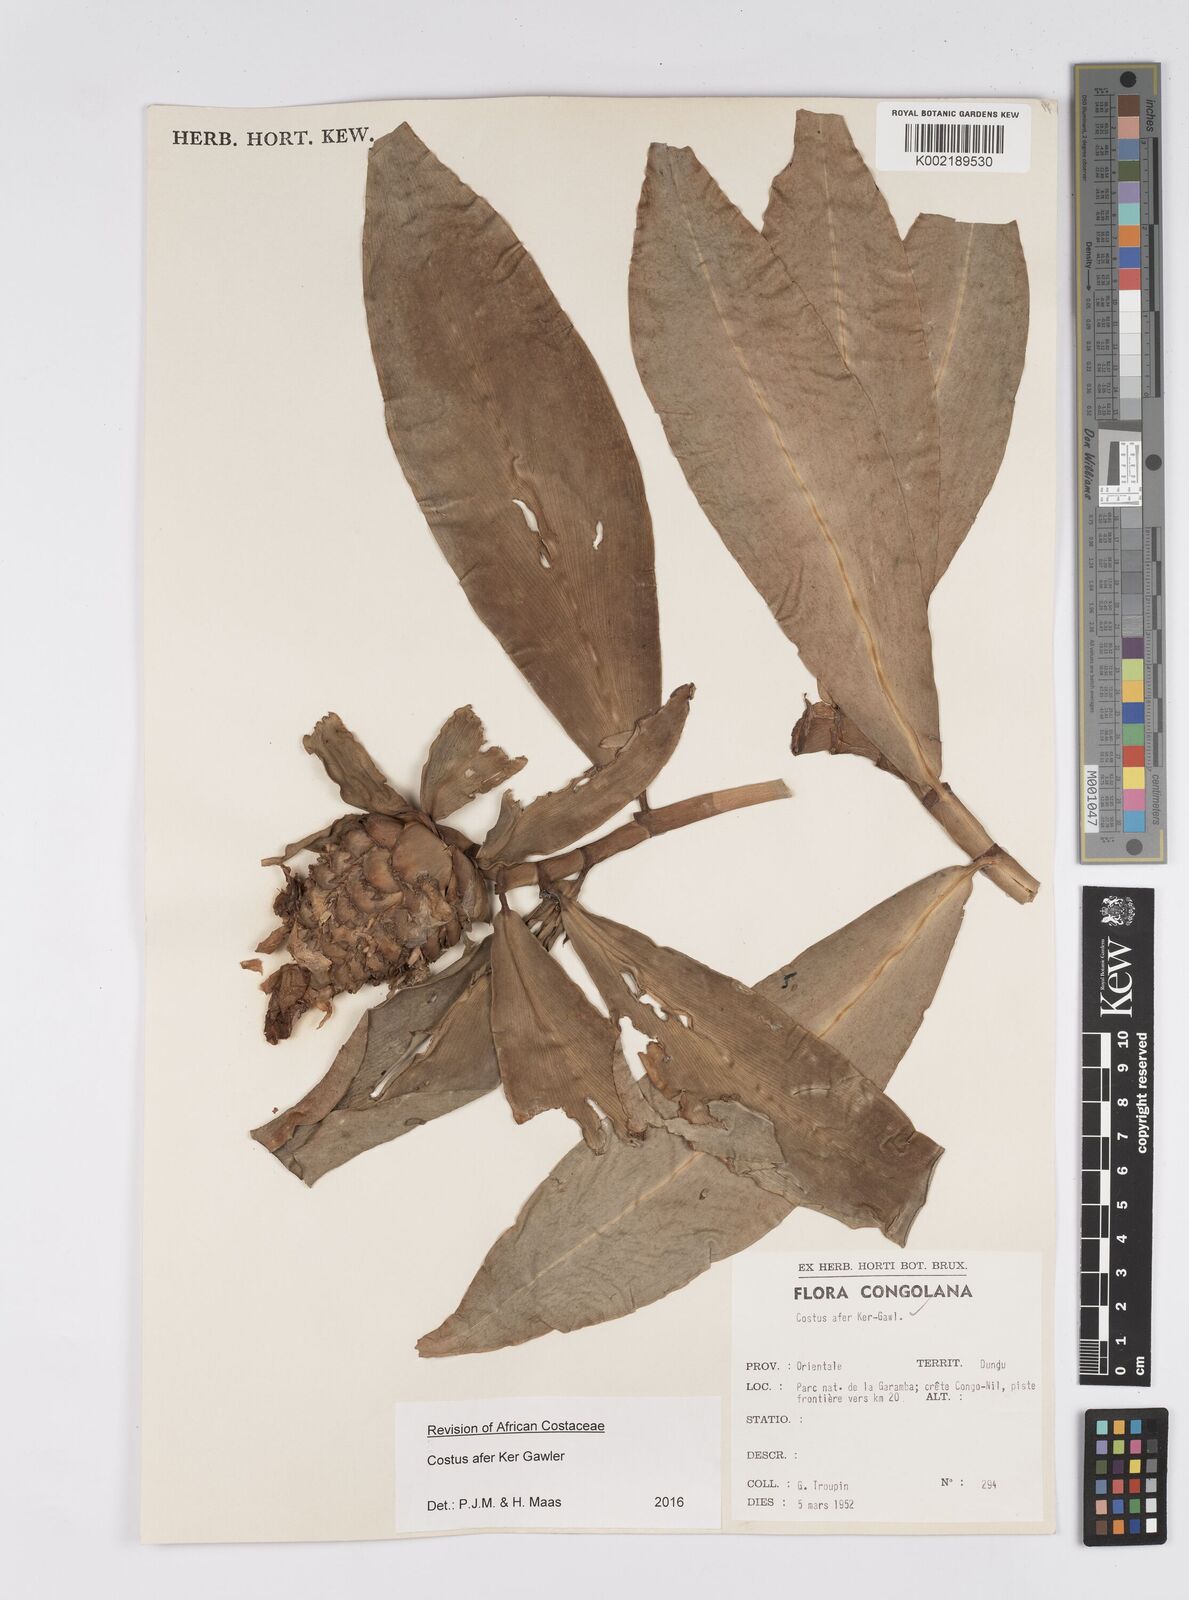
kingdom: Plantae
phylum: Tracheophyta
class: Liliopsida
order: Zingiberales
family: Costaceae
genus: Costus
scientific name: Costus afer
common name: Spiral-ginger
